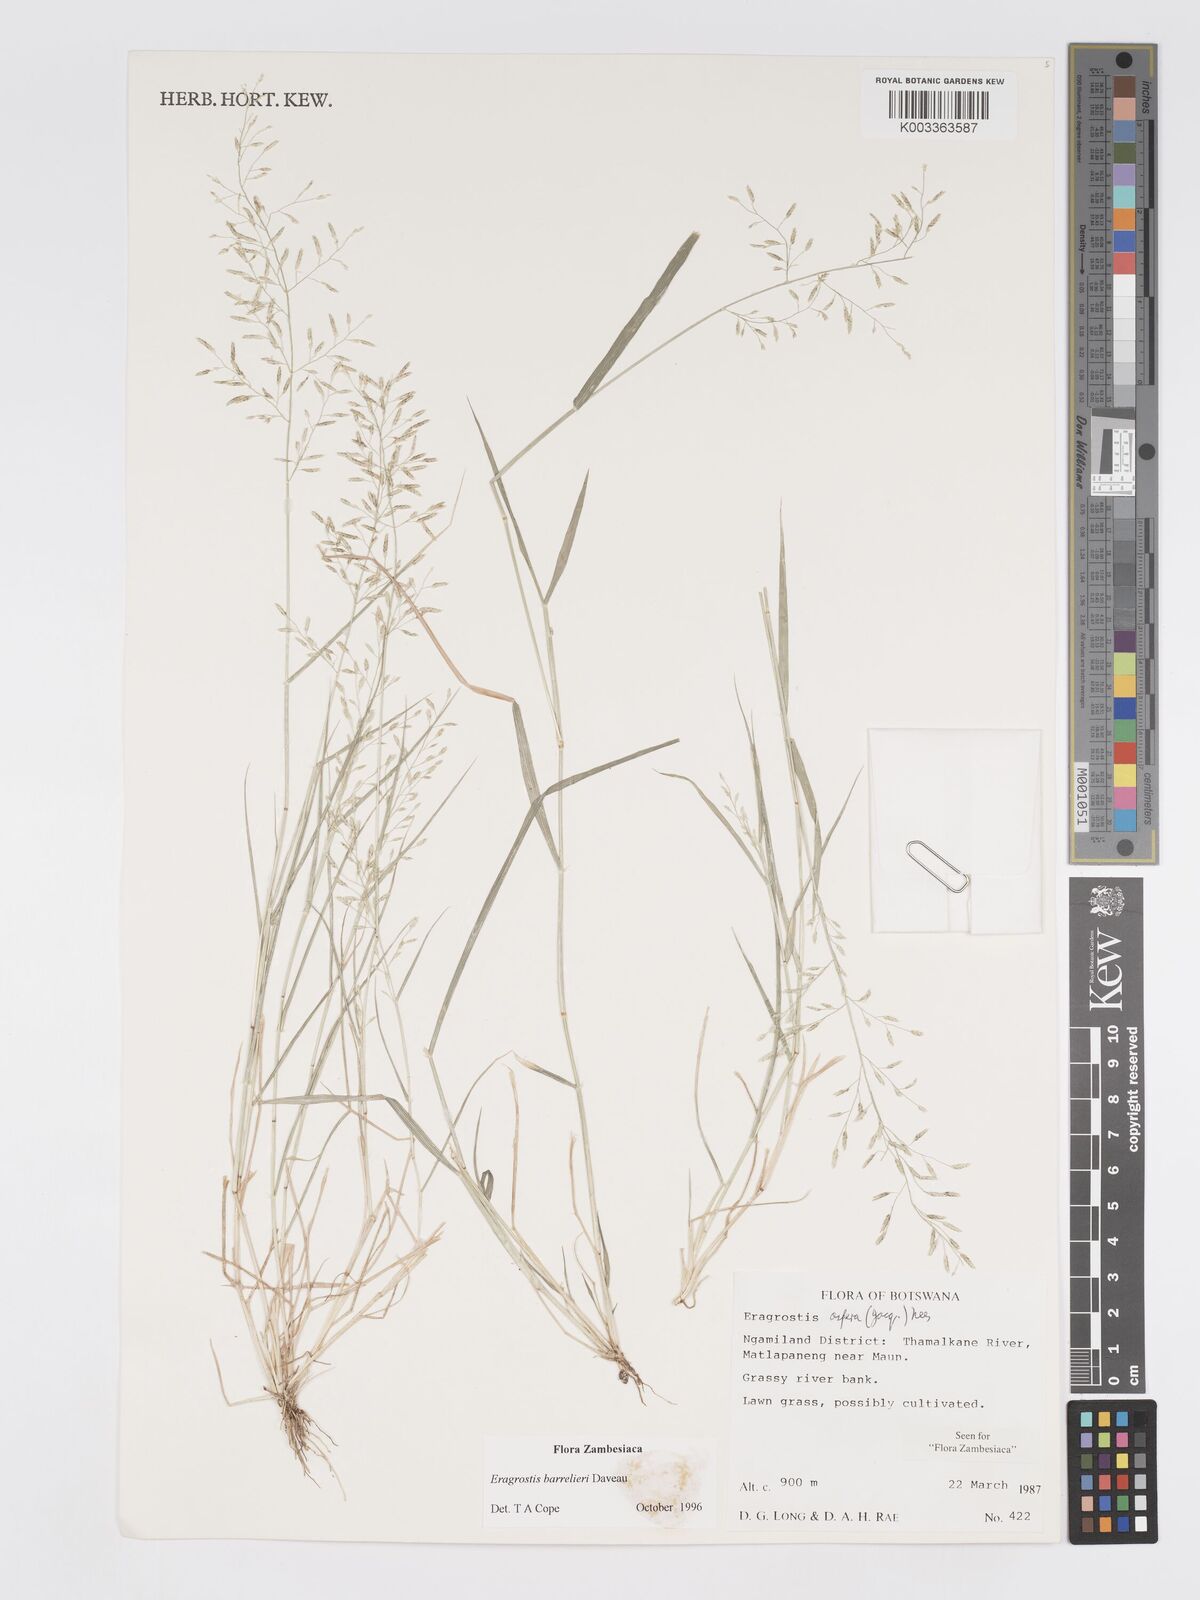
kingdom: Plantae
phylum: Tracheophyta
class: Liliopsida
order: Poales
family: Poaceae
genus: Eragrostis
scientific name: Eragrostis barrelieri
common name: Mediterranean lovegrass
